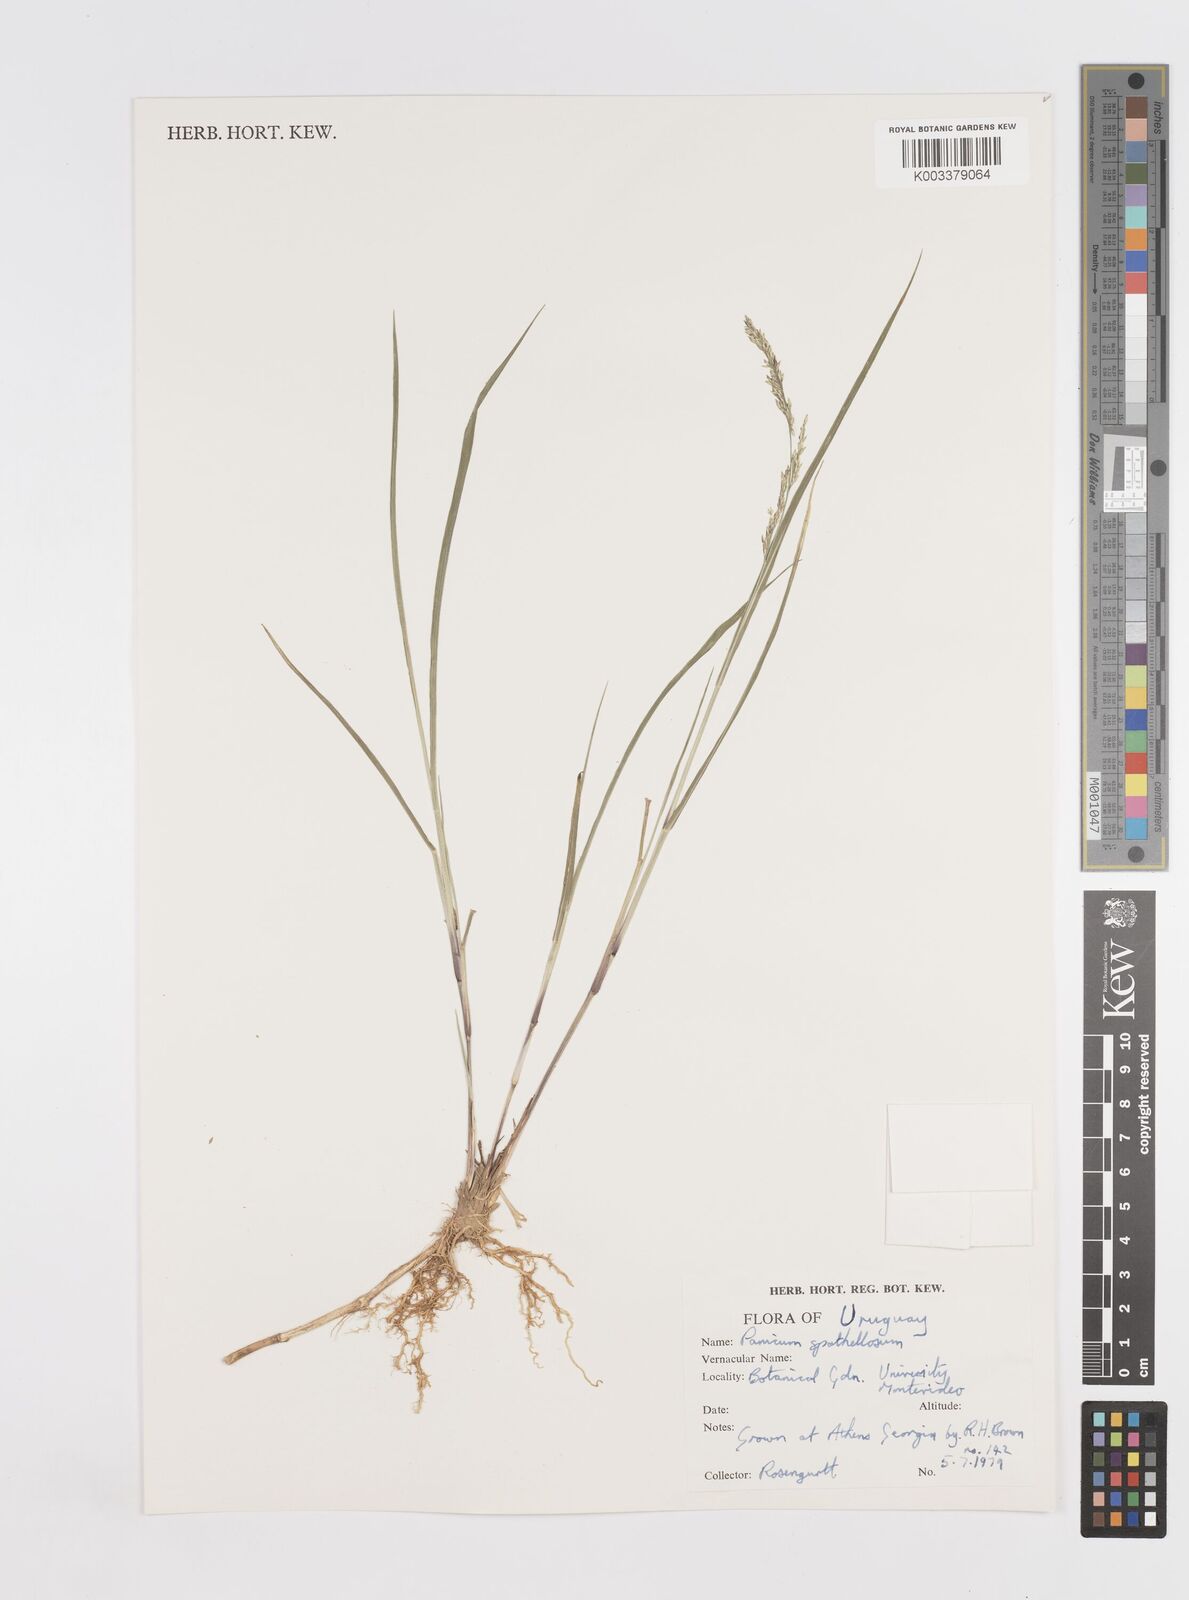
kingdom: Plantae
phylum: Tracheophyta
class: Liliopsida
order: Poales
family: Poaceae
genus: Steinchisma
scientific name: Steinchisma spathellosum
